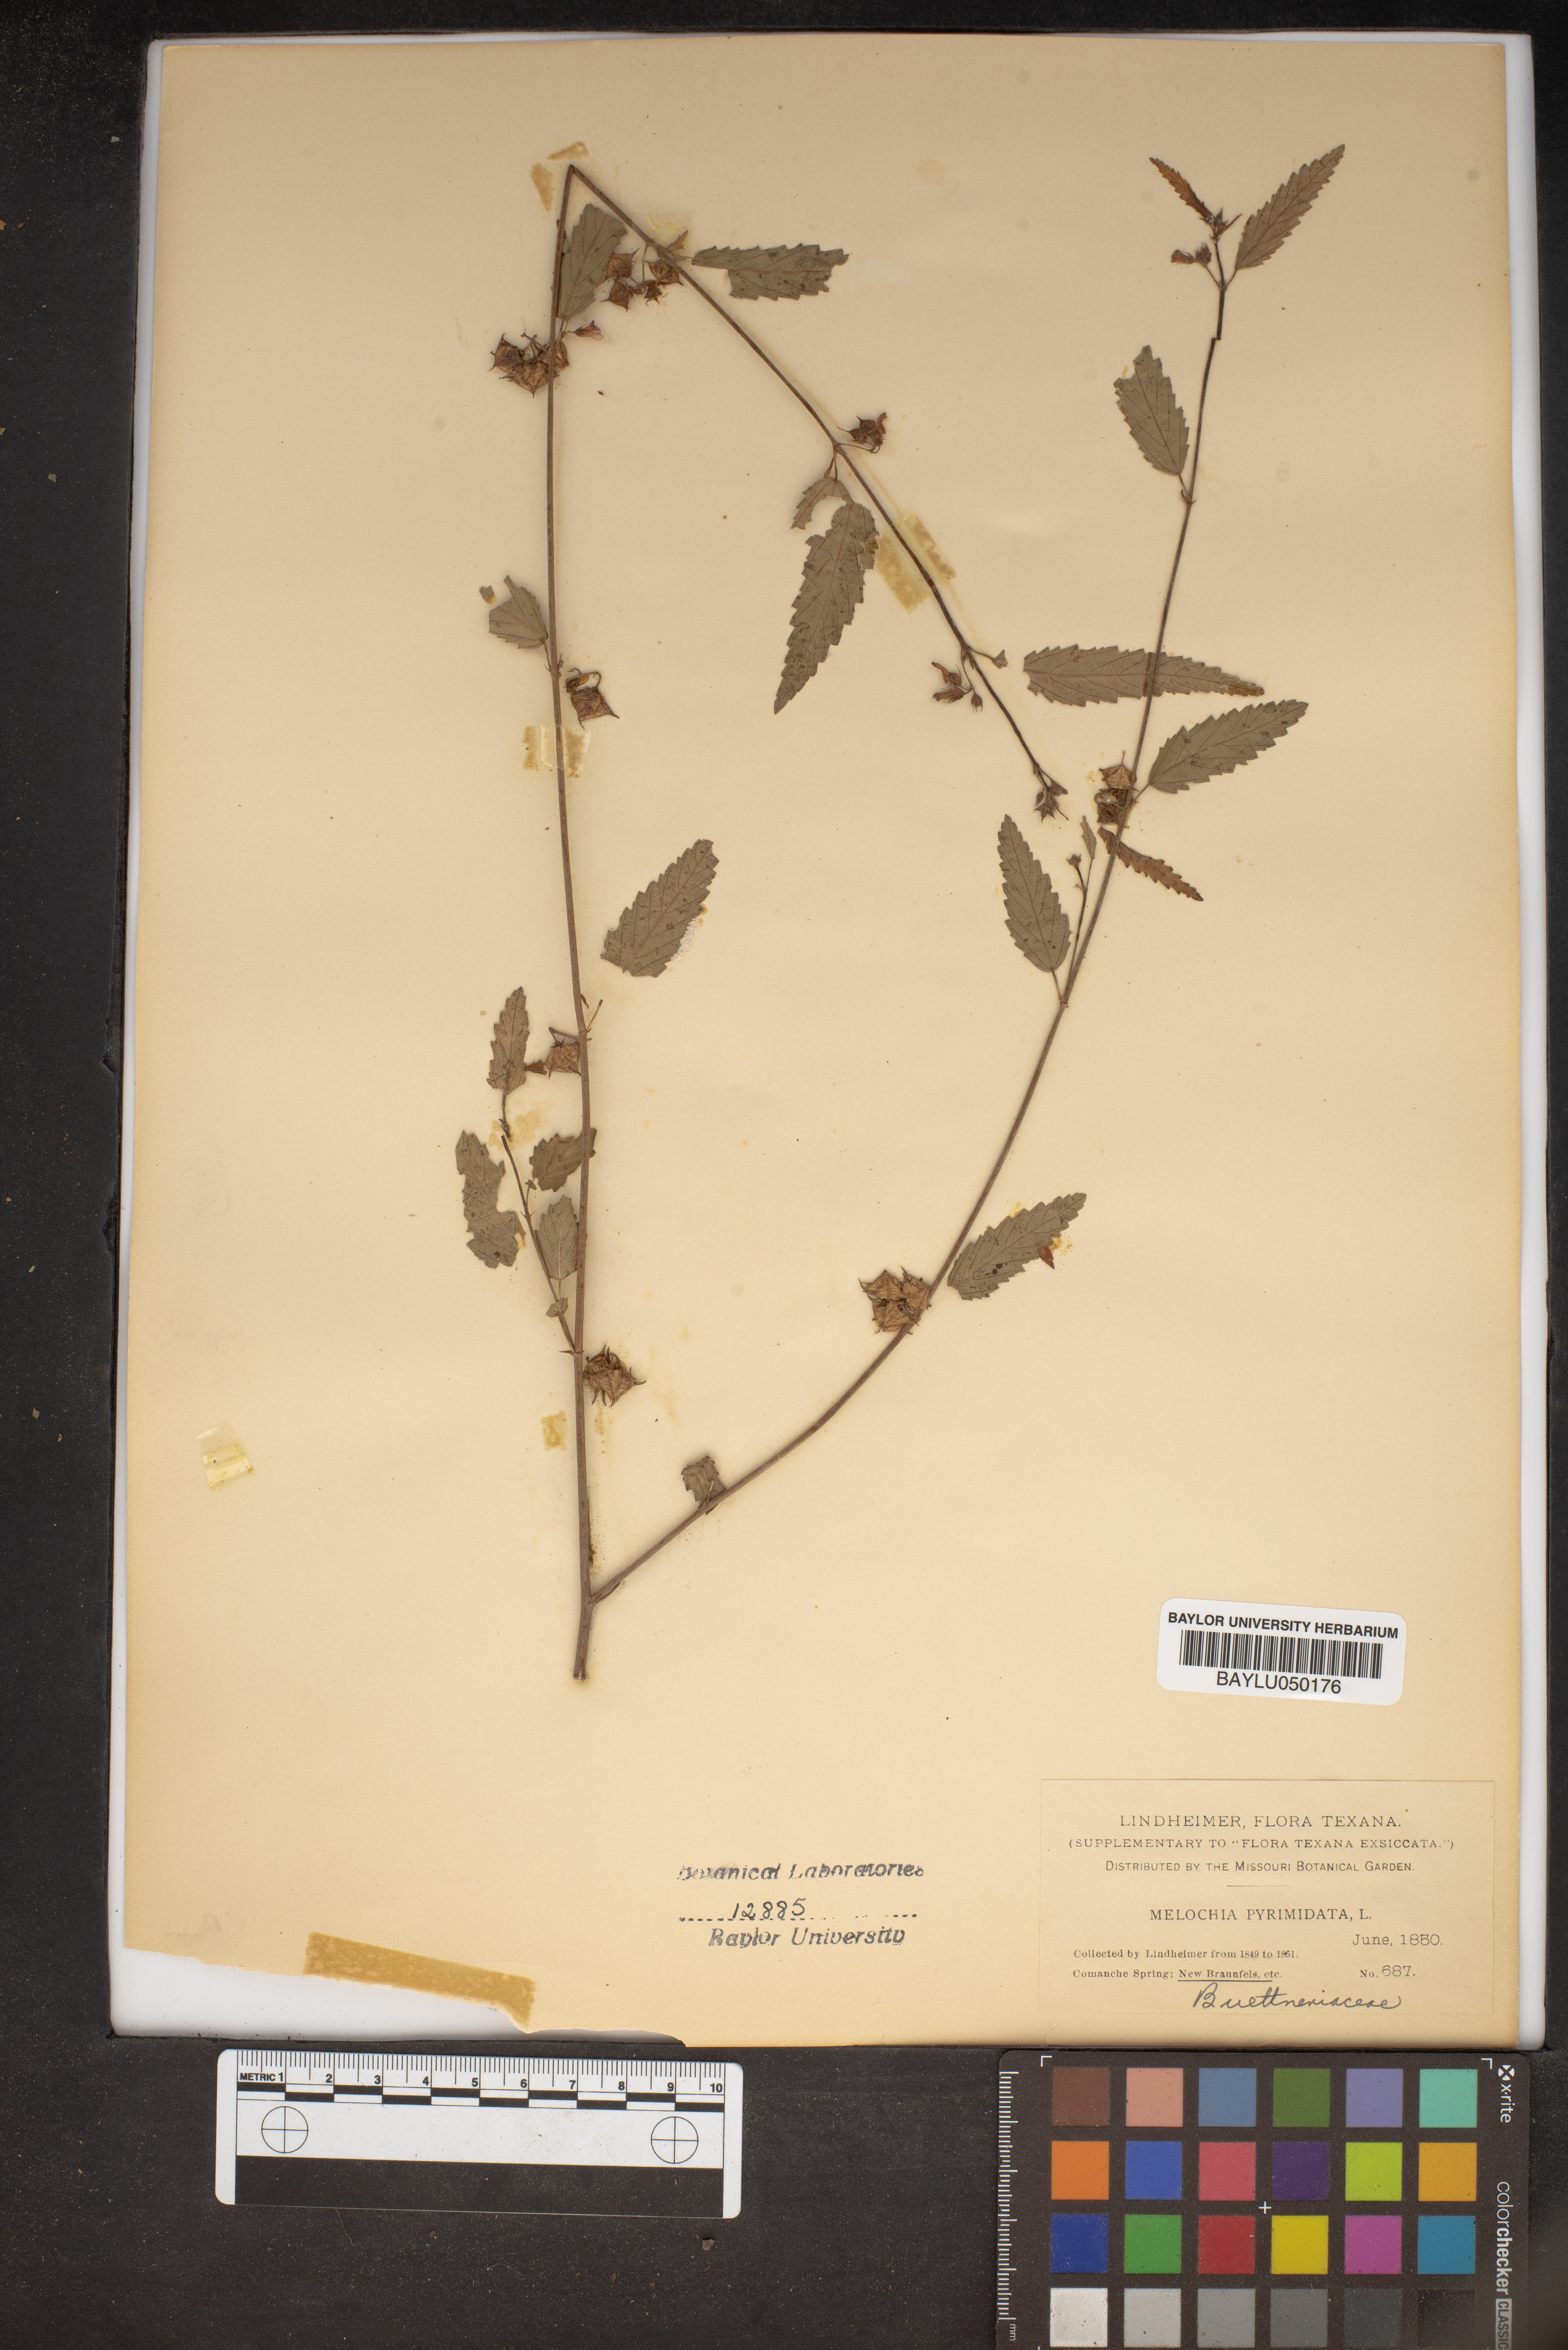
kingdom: Plantae
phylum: Tracheophyta
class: Magnoliopsida
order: Malvales
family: Malvaceae
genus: Melochia
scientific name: Melochia pyramidata
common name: Pyramidflower
